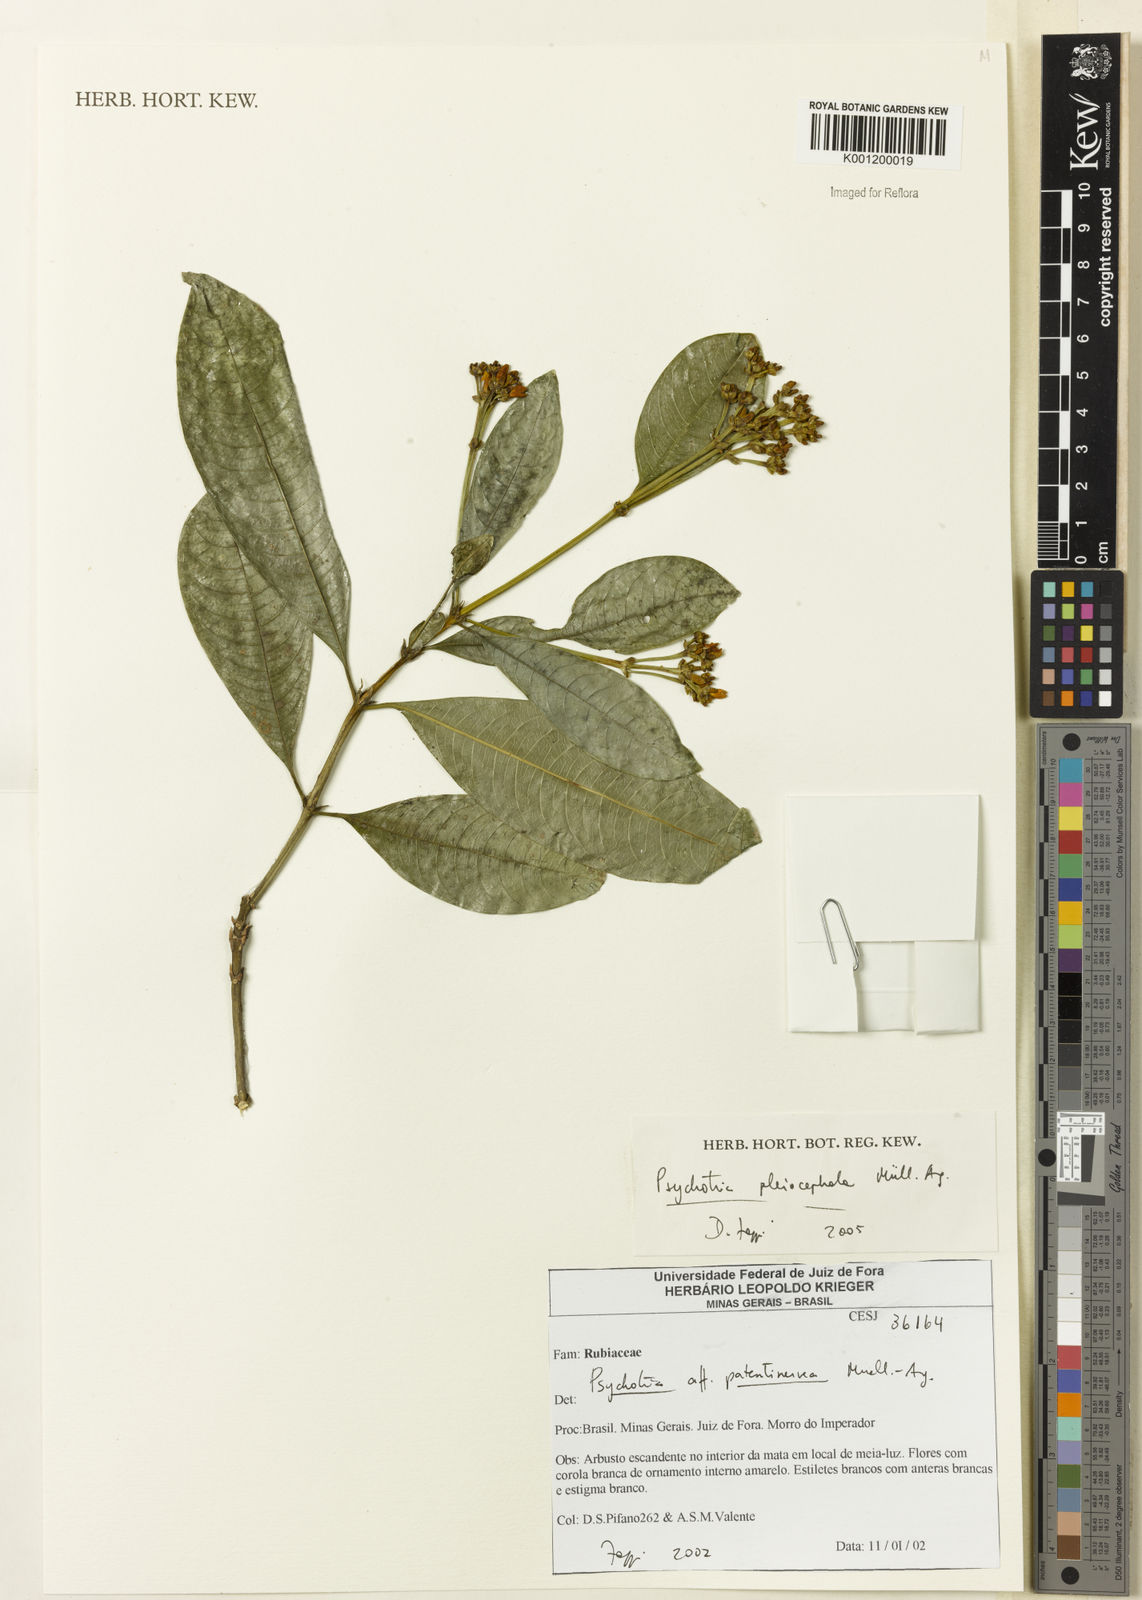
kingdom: Plantae
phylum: Tracheophyta
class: Magnoliopsida
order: Gentianales
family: Rubiaceae
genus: Psychotria
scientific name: Psychotria
